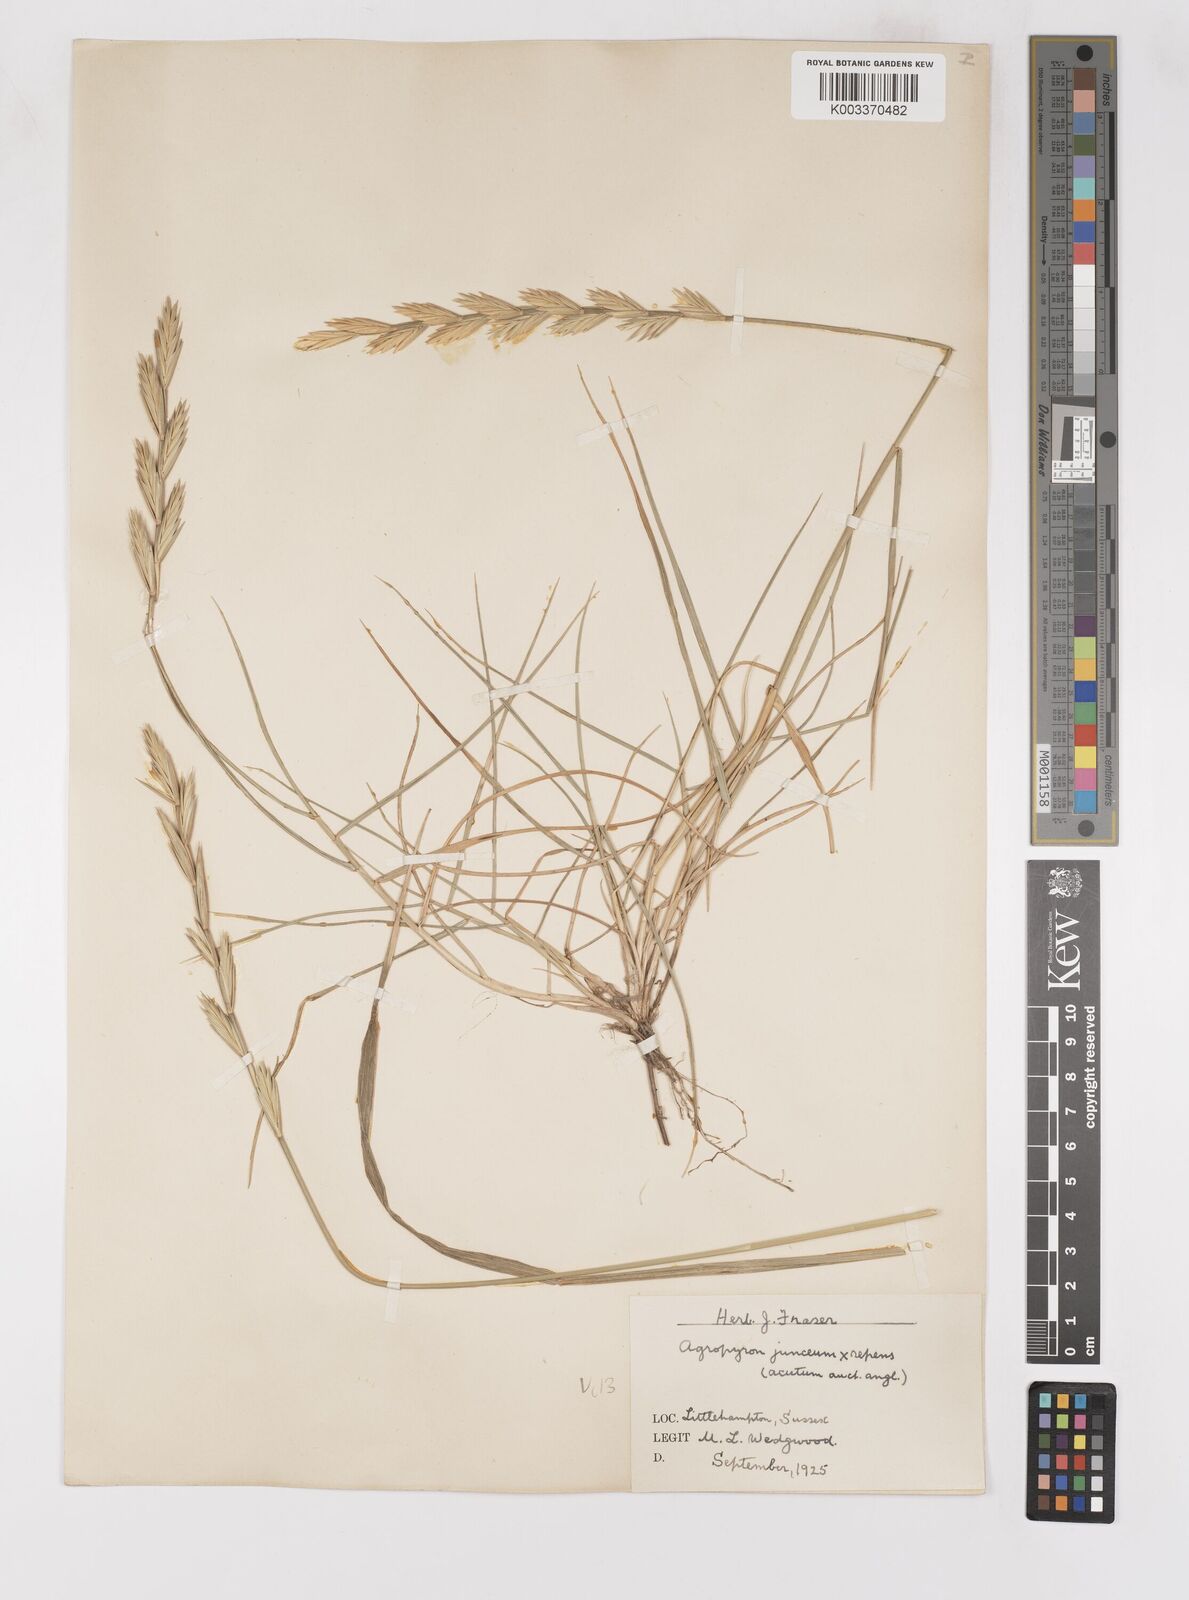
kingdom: Plantae
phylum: Tracheophyta
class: Liliopsida
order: Poales
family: Poaceae
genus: Thinoelymus
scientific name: Thinoelymus obtusiusculus
